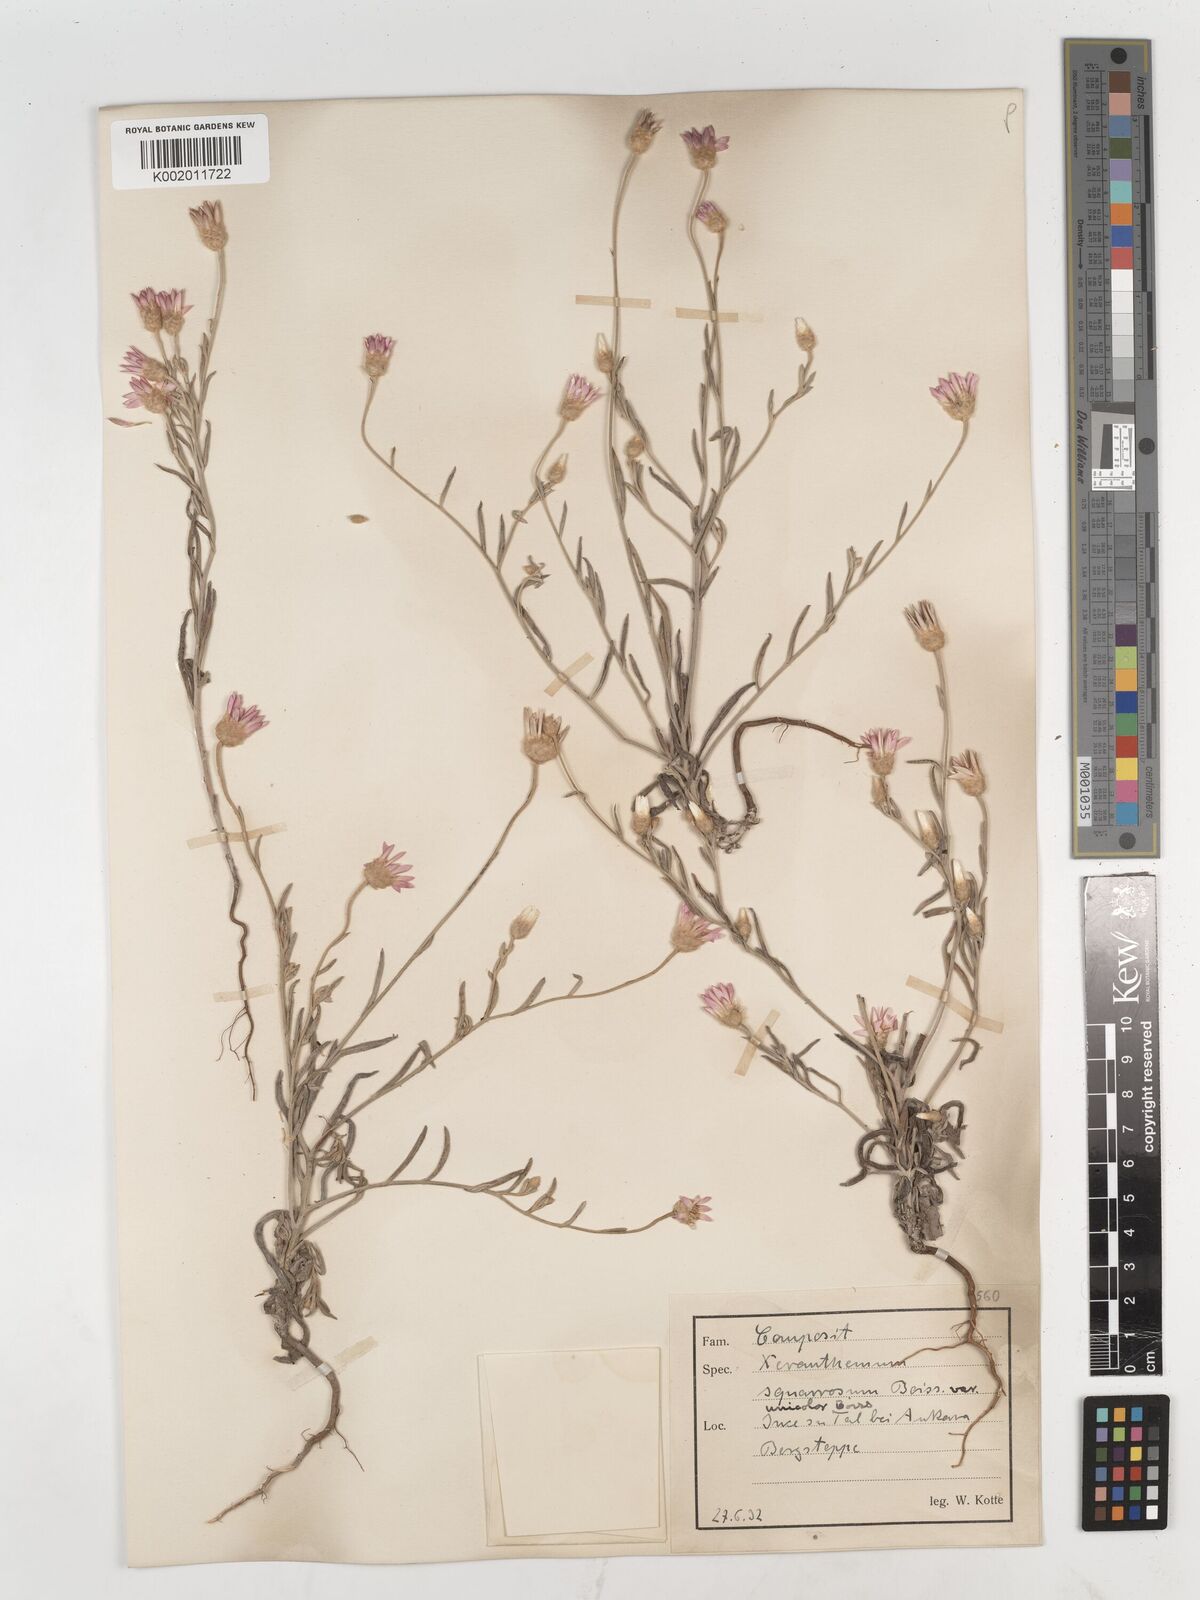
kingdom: Plantae
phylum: Tracheophyta
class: Magnoliopsida
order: Asterales
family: Asteraceae
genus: Xeranthemum
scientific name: Xeranthemum squarrosum
